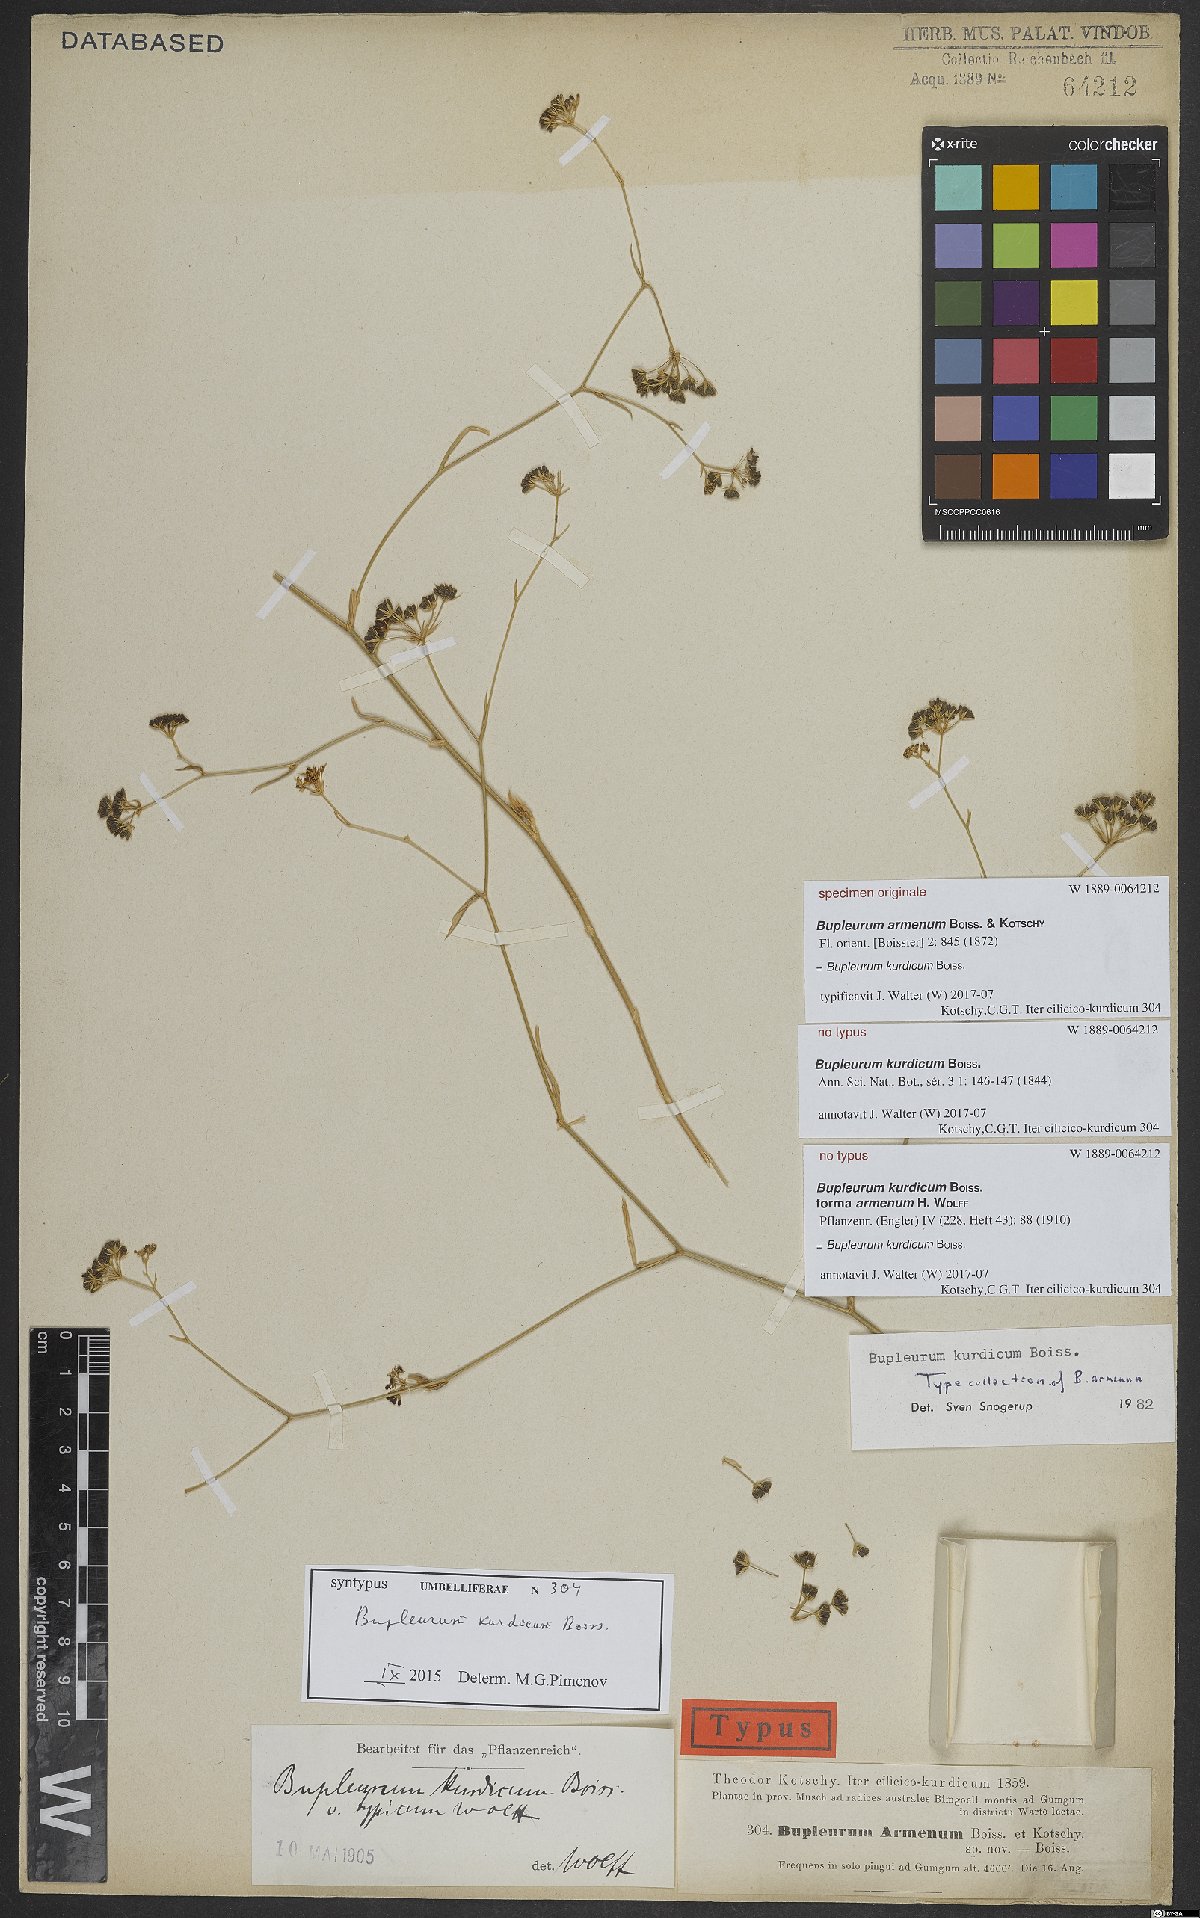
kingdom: Plantae
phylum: Tracheophyta
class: Magnoliopsida
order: Apiales
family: Apiaceae
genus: Bupleurum
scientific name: Bupleurum kurdicum
